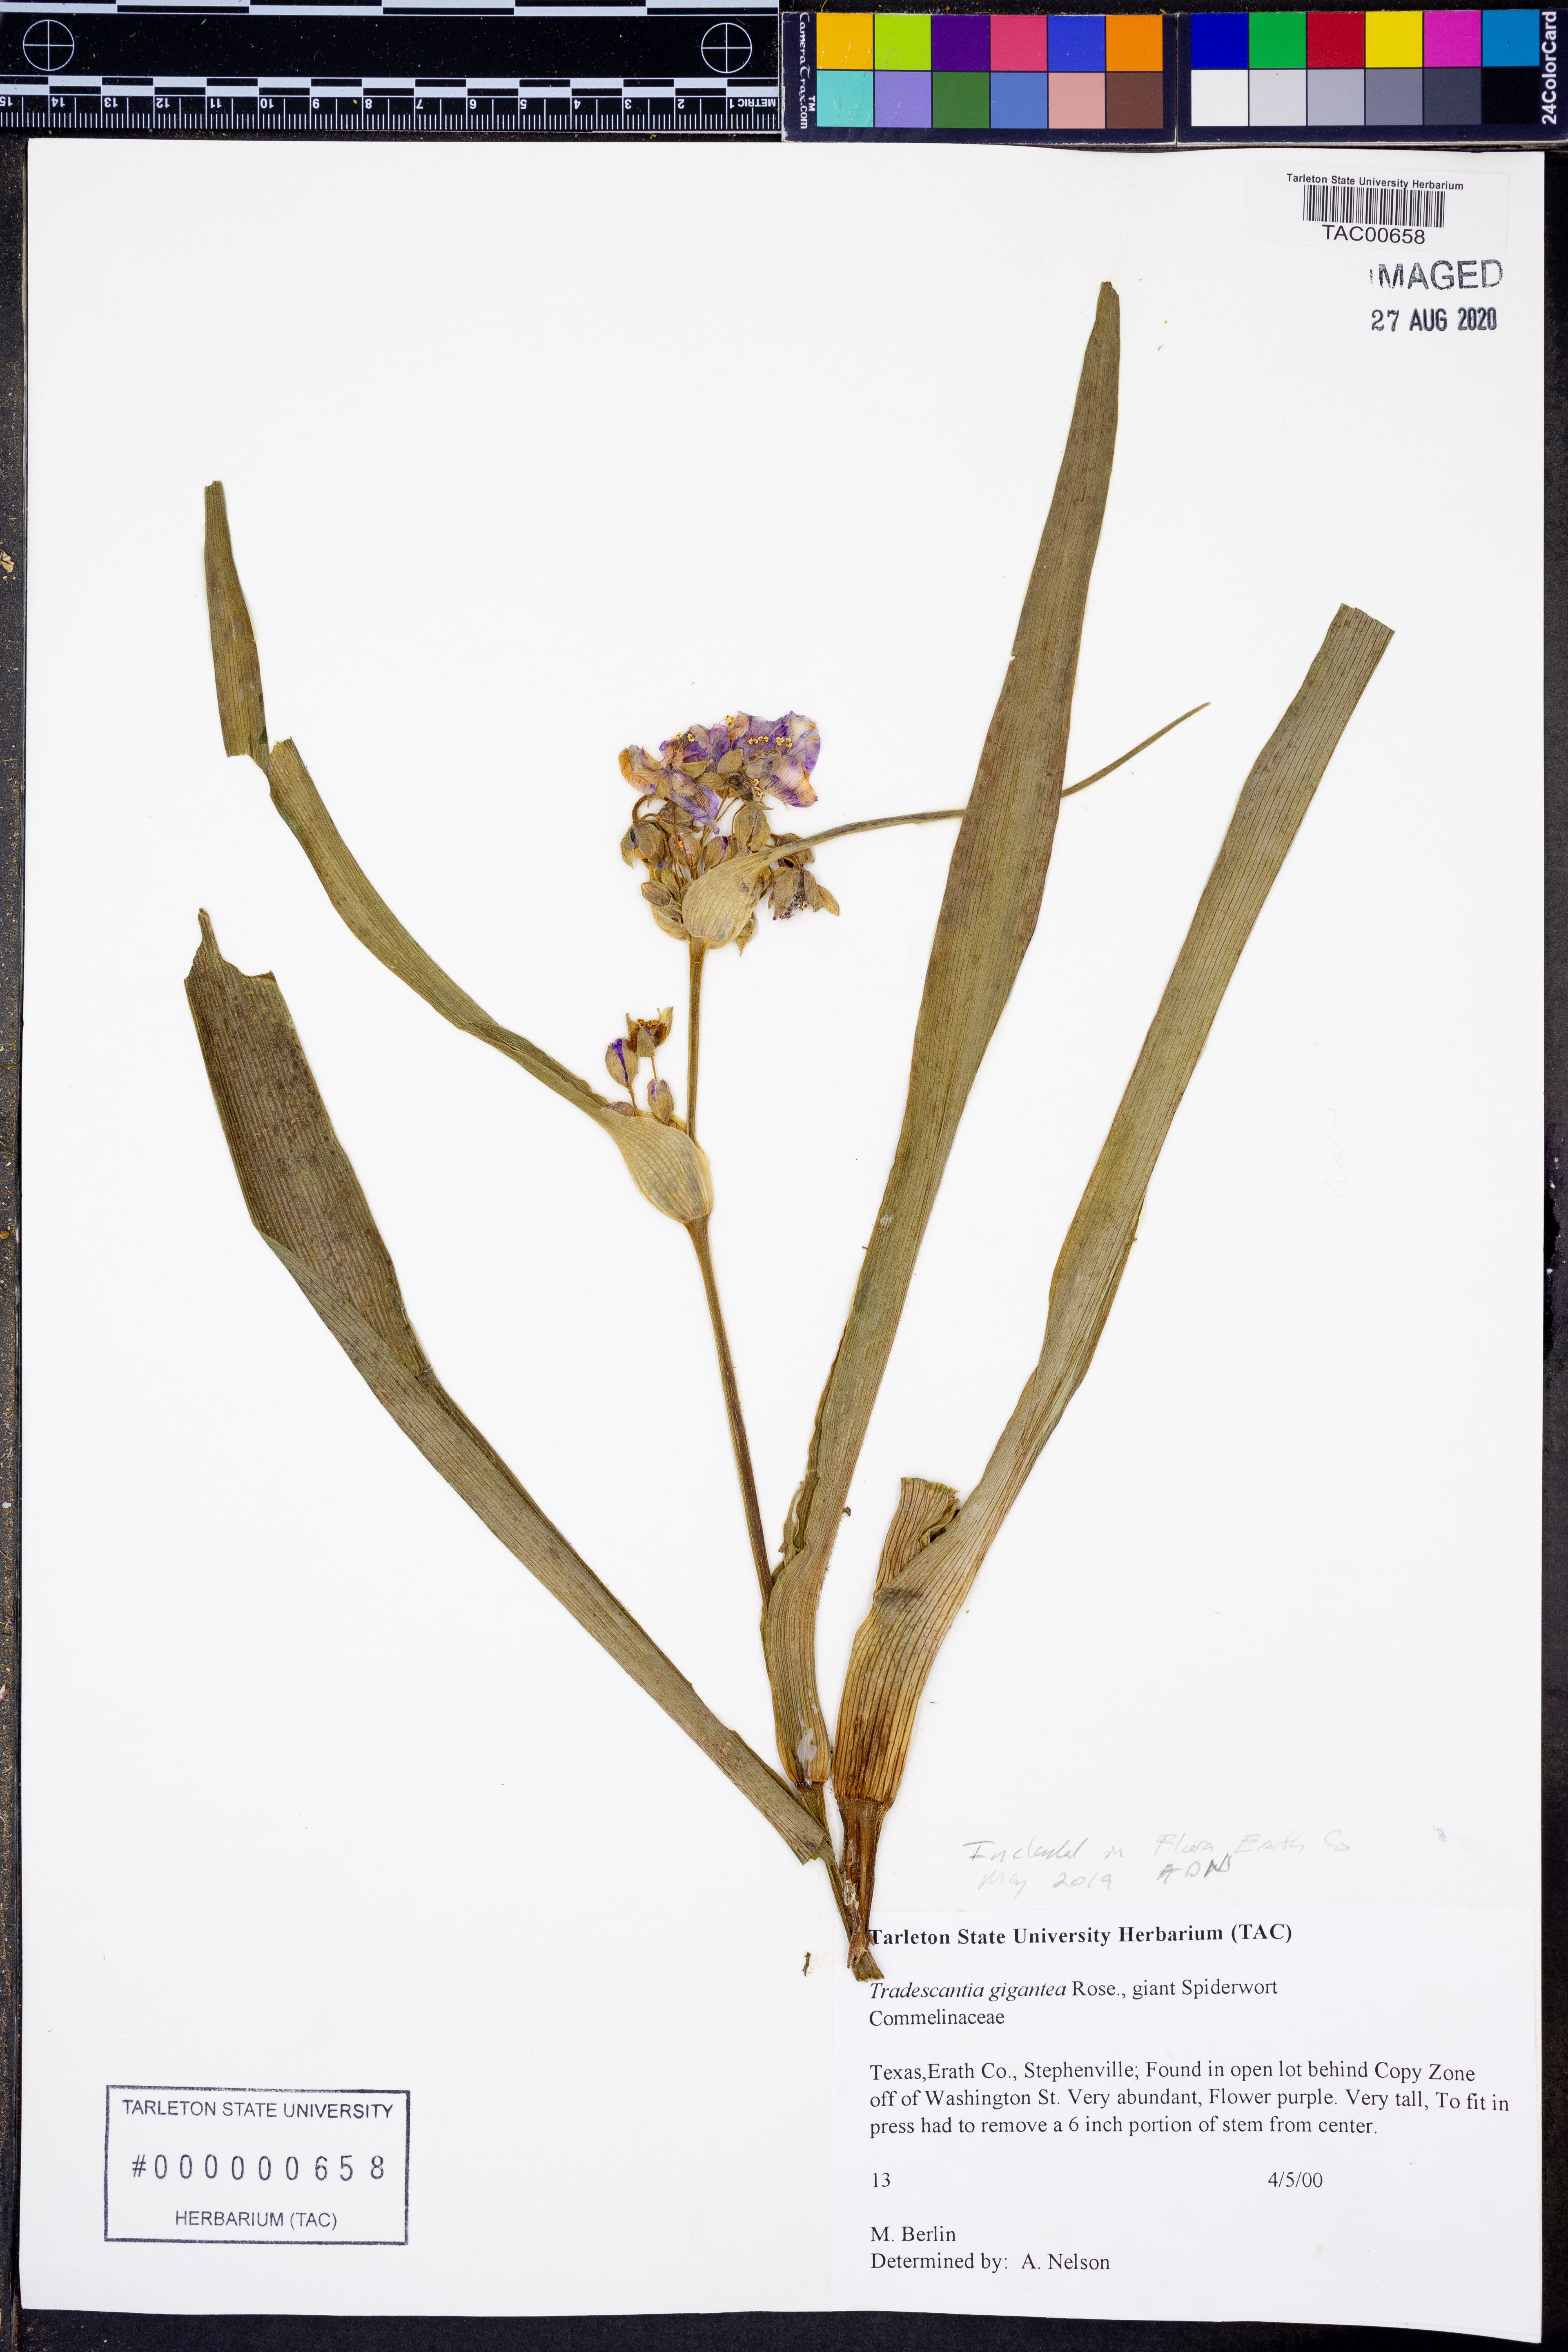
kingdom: Plantae
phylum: Tracheophyta
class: Liliopsida
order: Commelinales
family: Commelinaceae
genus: Tradescantia
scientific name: Tradescantia gigantea
